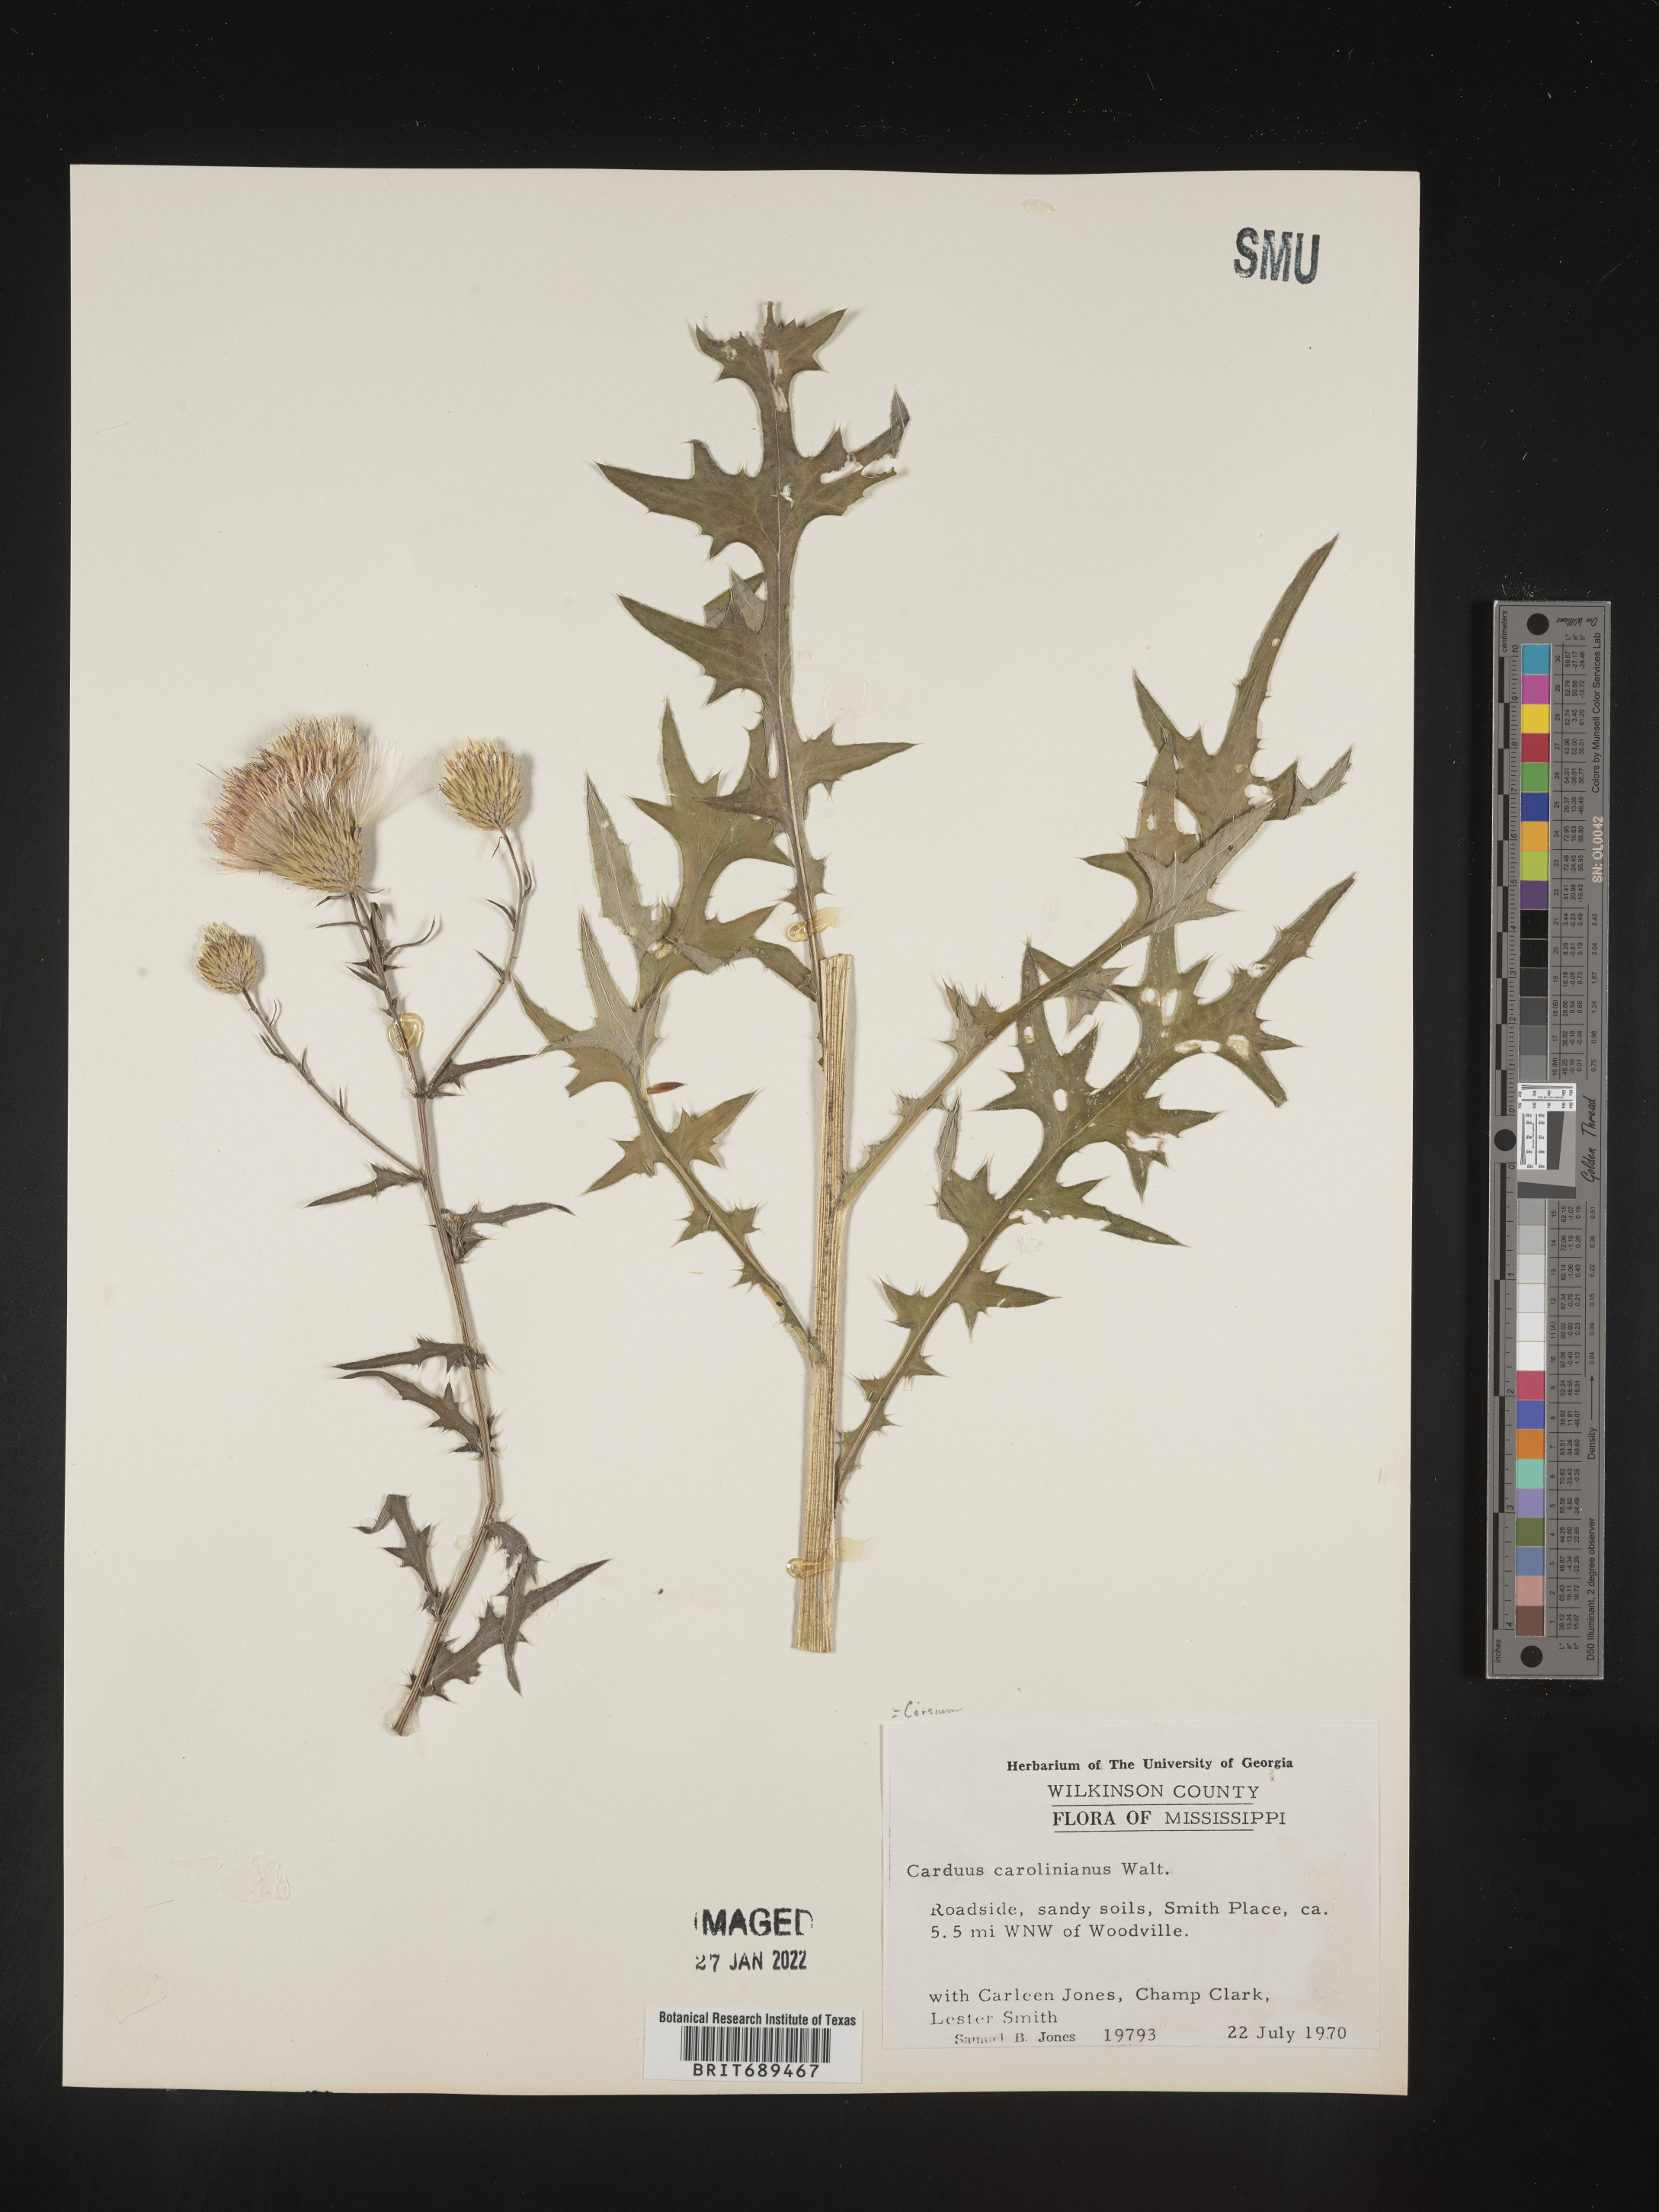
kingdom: Plantae
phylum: Tracheophyta
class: Magnoliopsida
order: Asterales
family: Asteraceae
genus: Cirsium
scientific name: Cirsium carolinianum
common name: Carolina thistle
